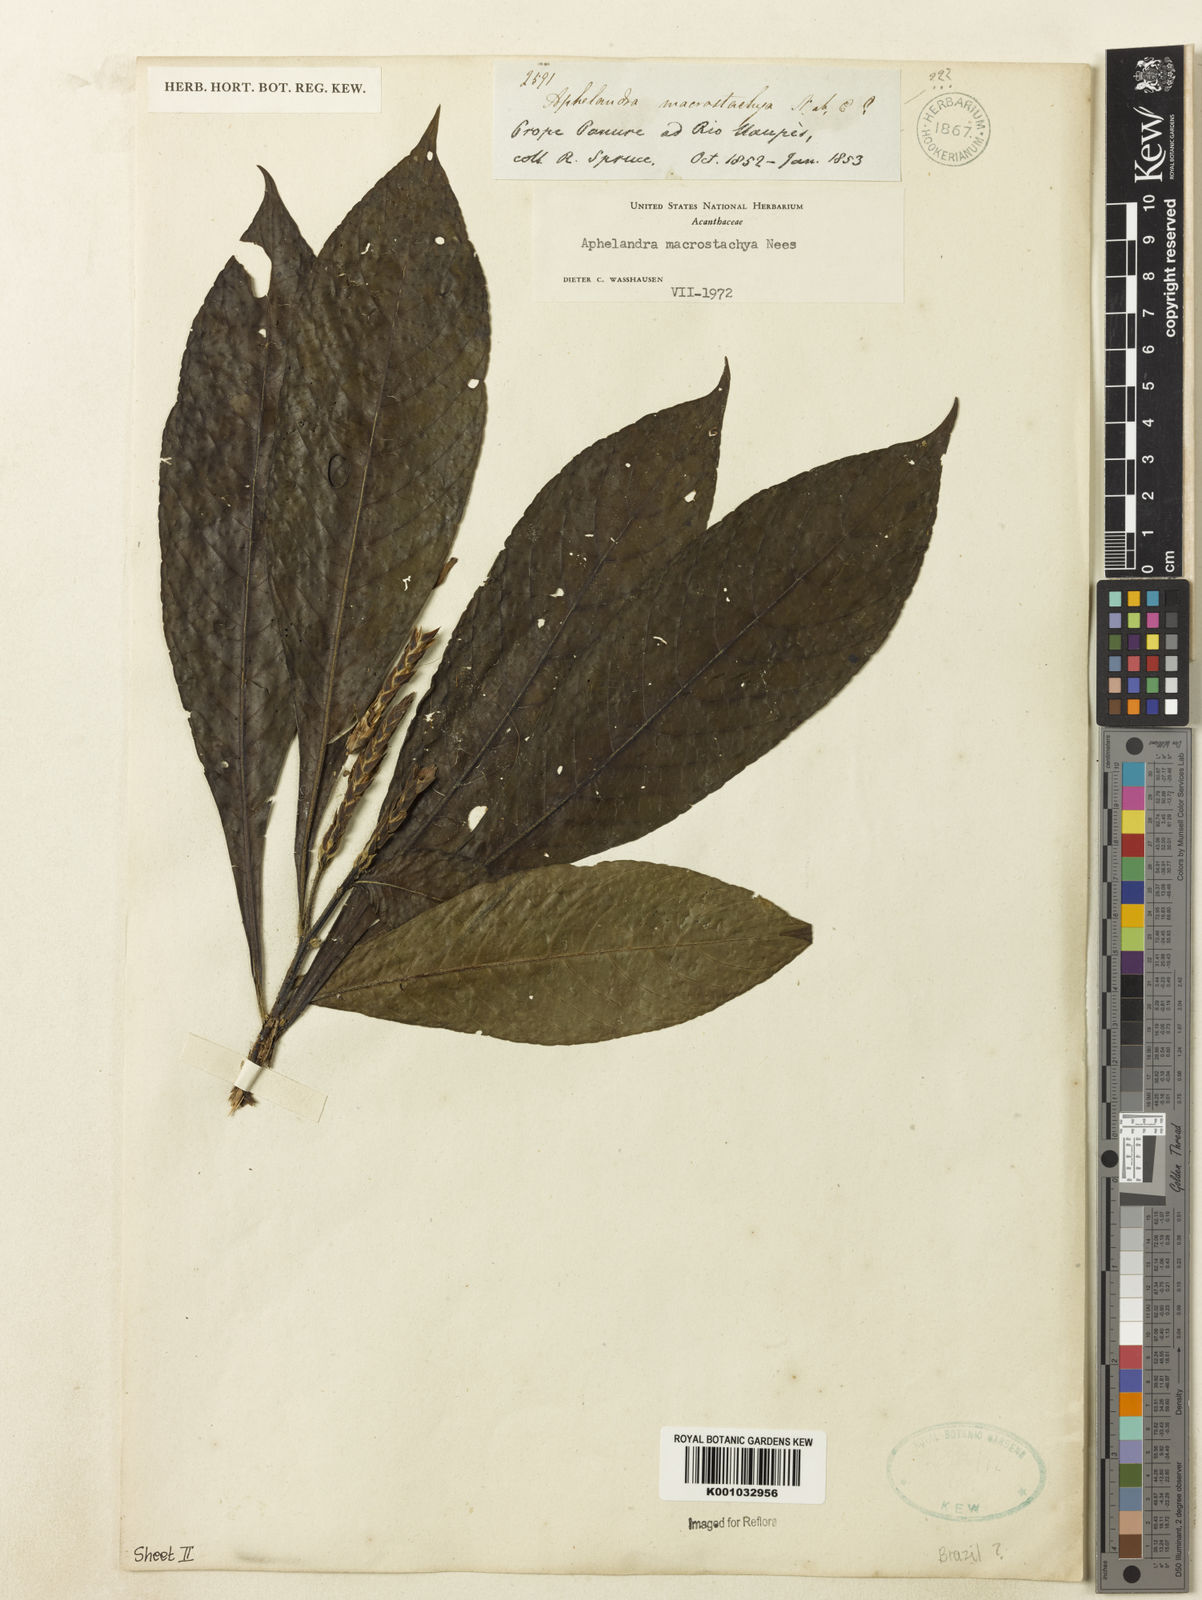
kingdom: Plantae
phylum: Tracheophyta
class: Magnoliopsida
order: Lamiales
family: Acanthaceae
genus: Aphelandra
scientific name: Aphelandra macrostachya
